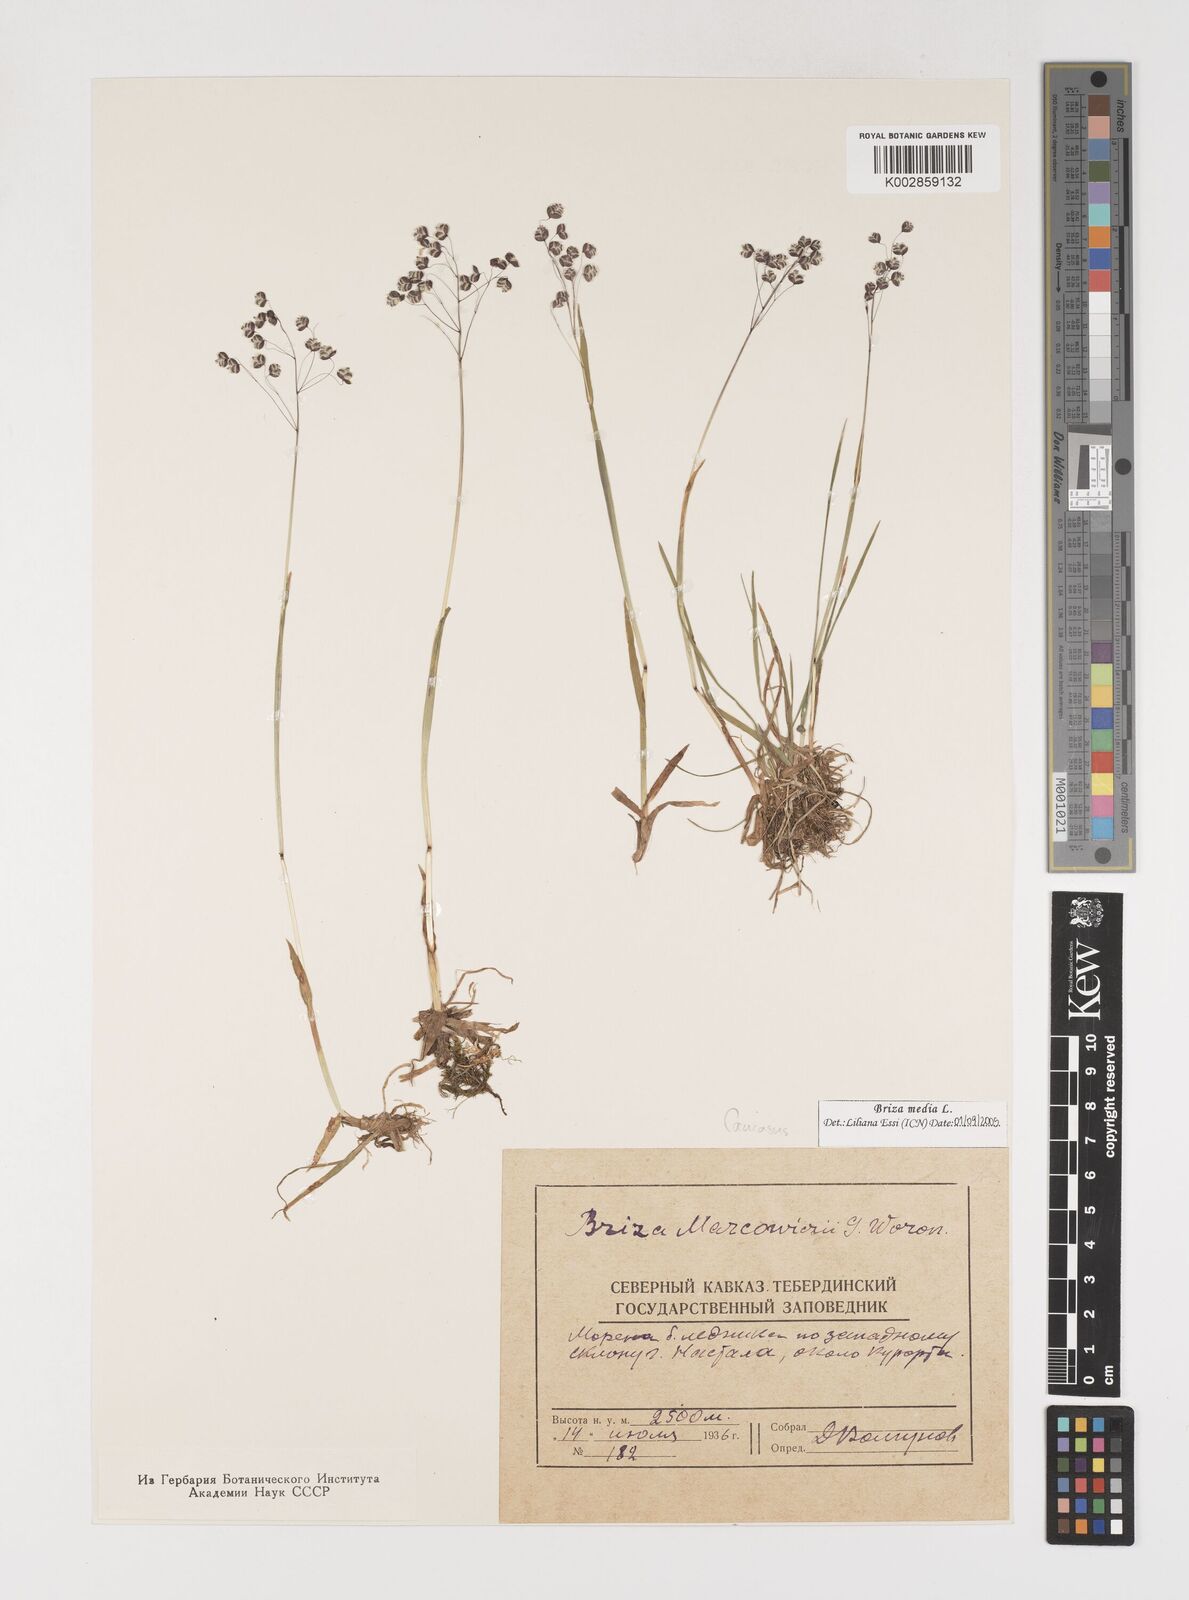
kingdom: Plantae
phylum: Tracheophyta
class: Liliopsida
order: Poales
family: Poaceae
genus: Briza
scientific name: Briza marcowiczii
